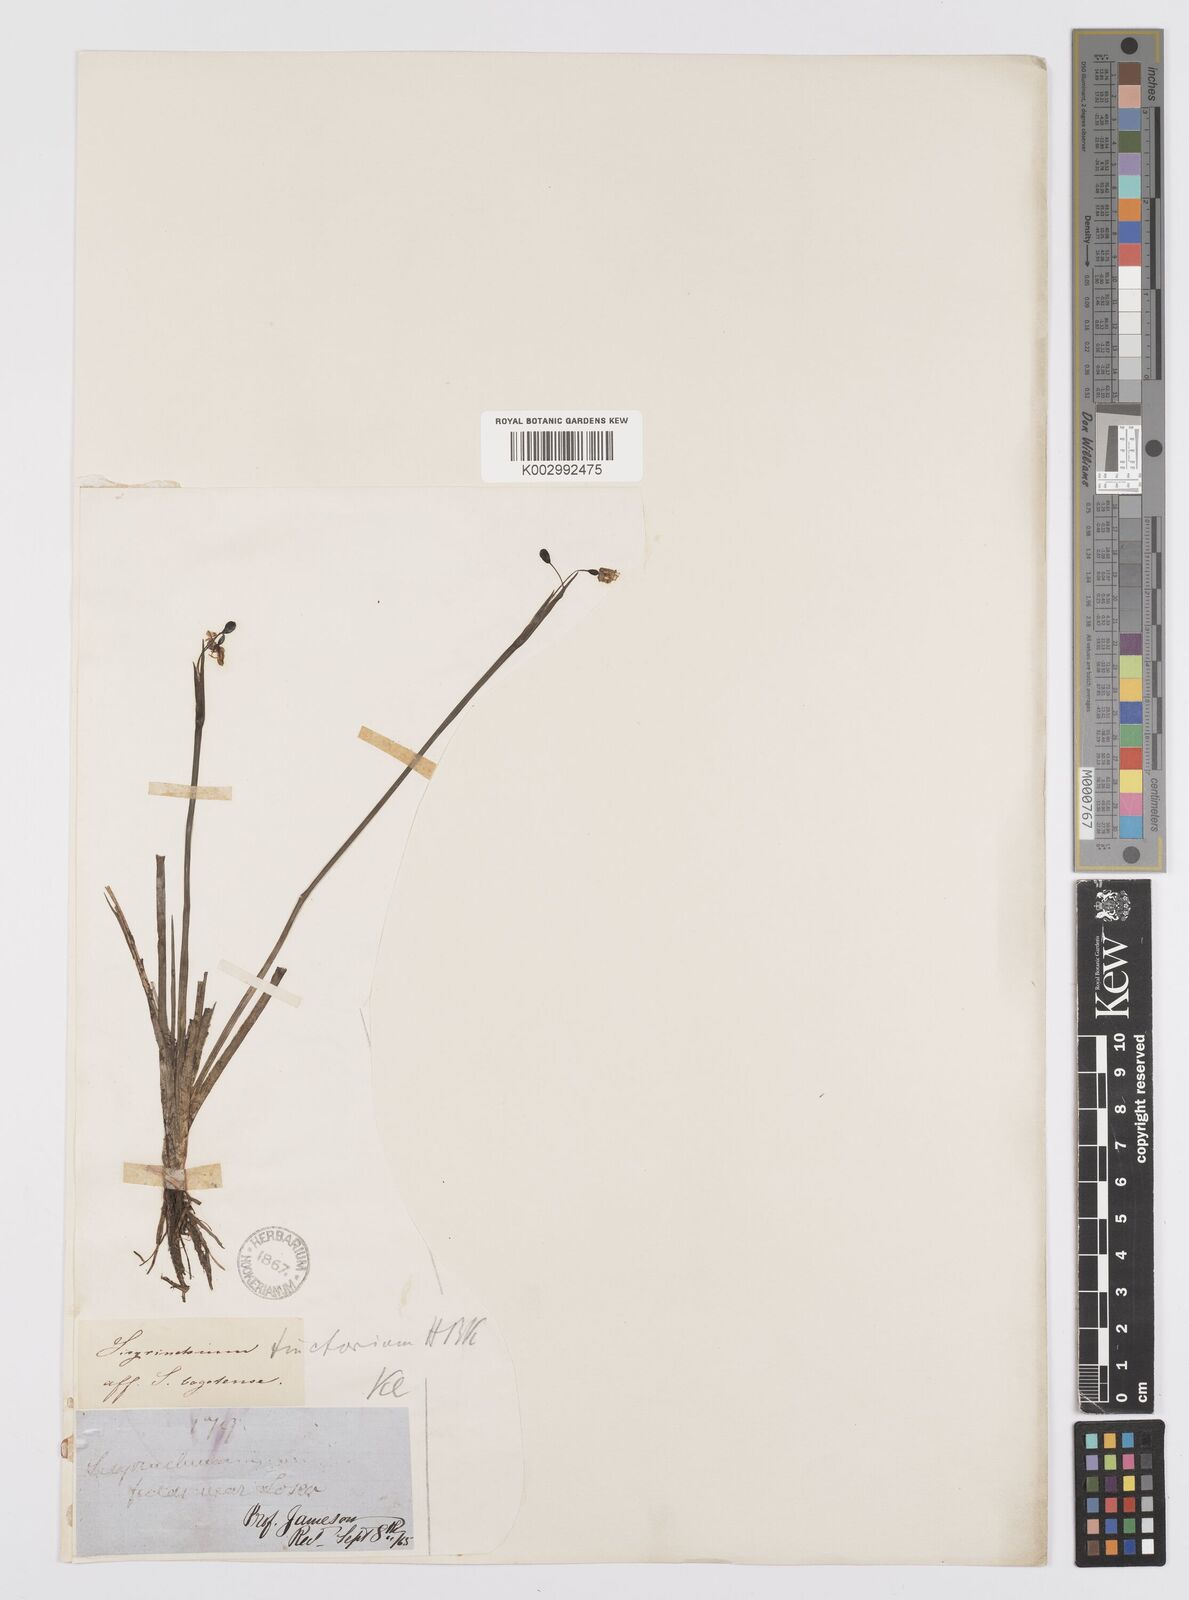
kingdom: Plantae
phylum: Tracheophyta
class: Liliopsida
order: Asparagales
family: Iridaceae
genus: Sisyrinchium
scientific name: Sisyrinchium tinctorium
